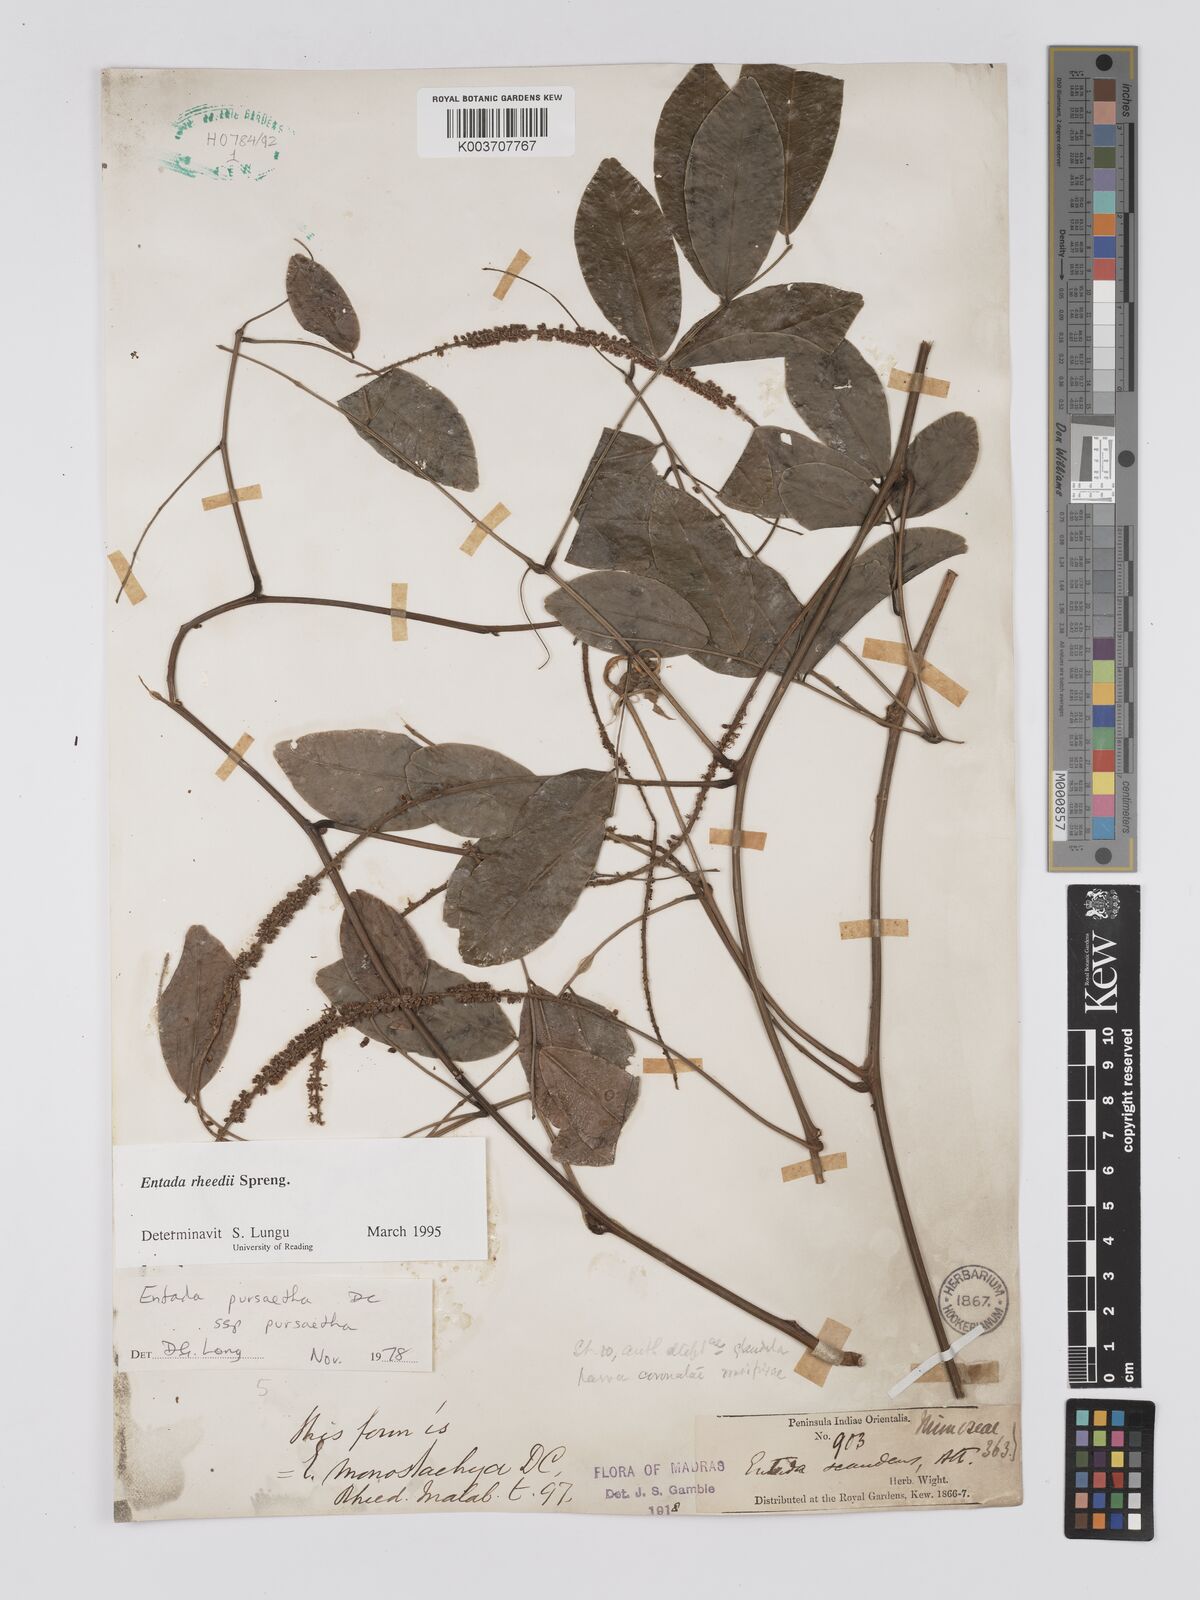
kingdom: Plantae
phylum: Tracheophyta
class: Magnoliopsida
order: Fabales
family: Fabaceae
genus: Entada
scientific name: Entada rheedei
